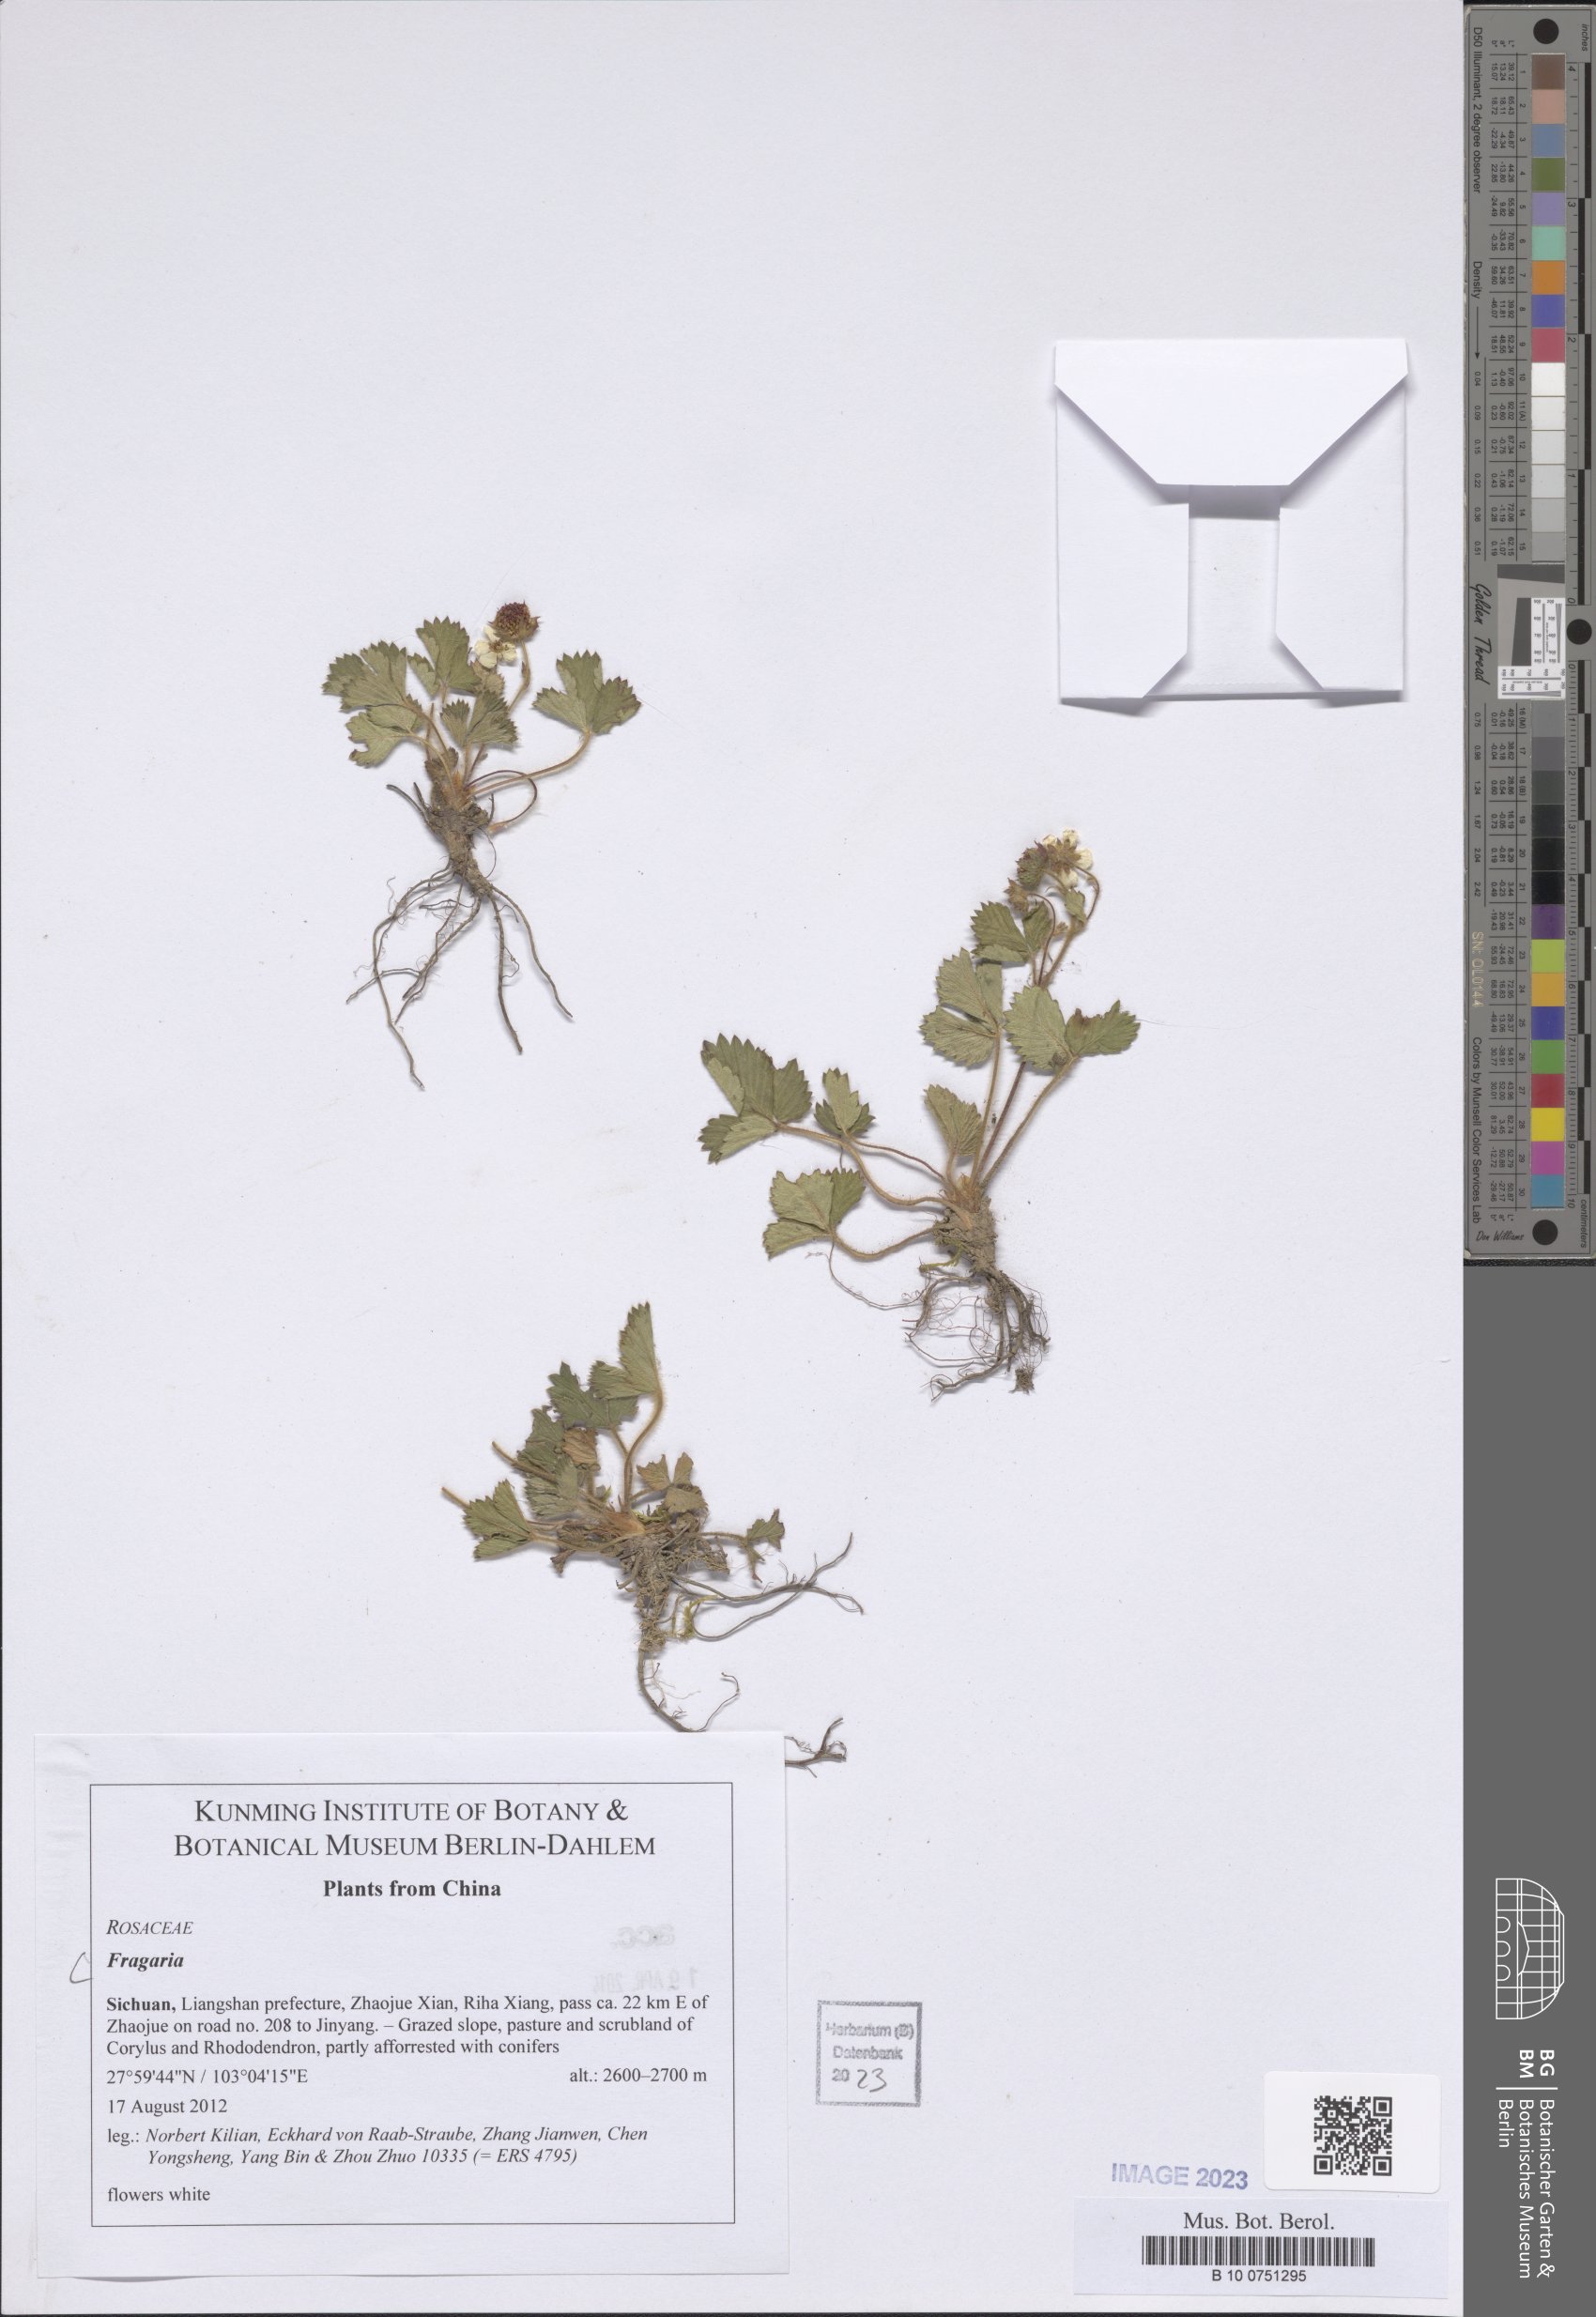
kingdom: Plantae
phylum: Tracheophyta
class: Magnoliopsida
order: Rosales
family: Rosaceae
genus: Fragaria
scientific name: Fragaria
